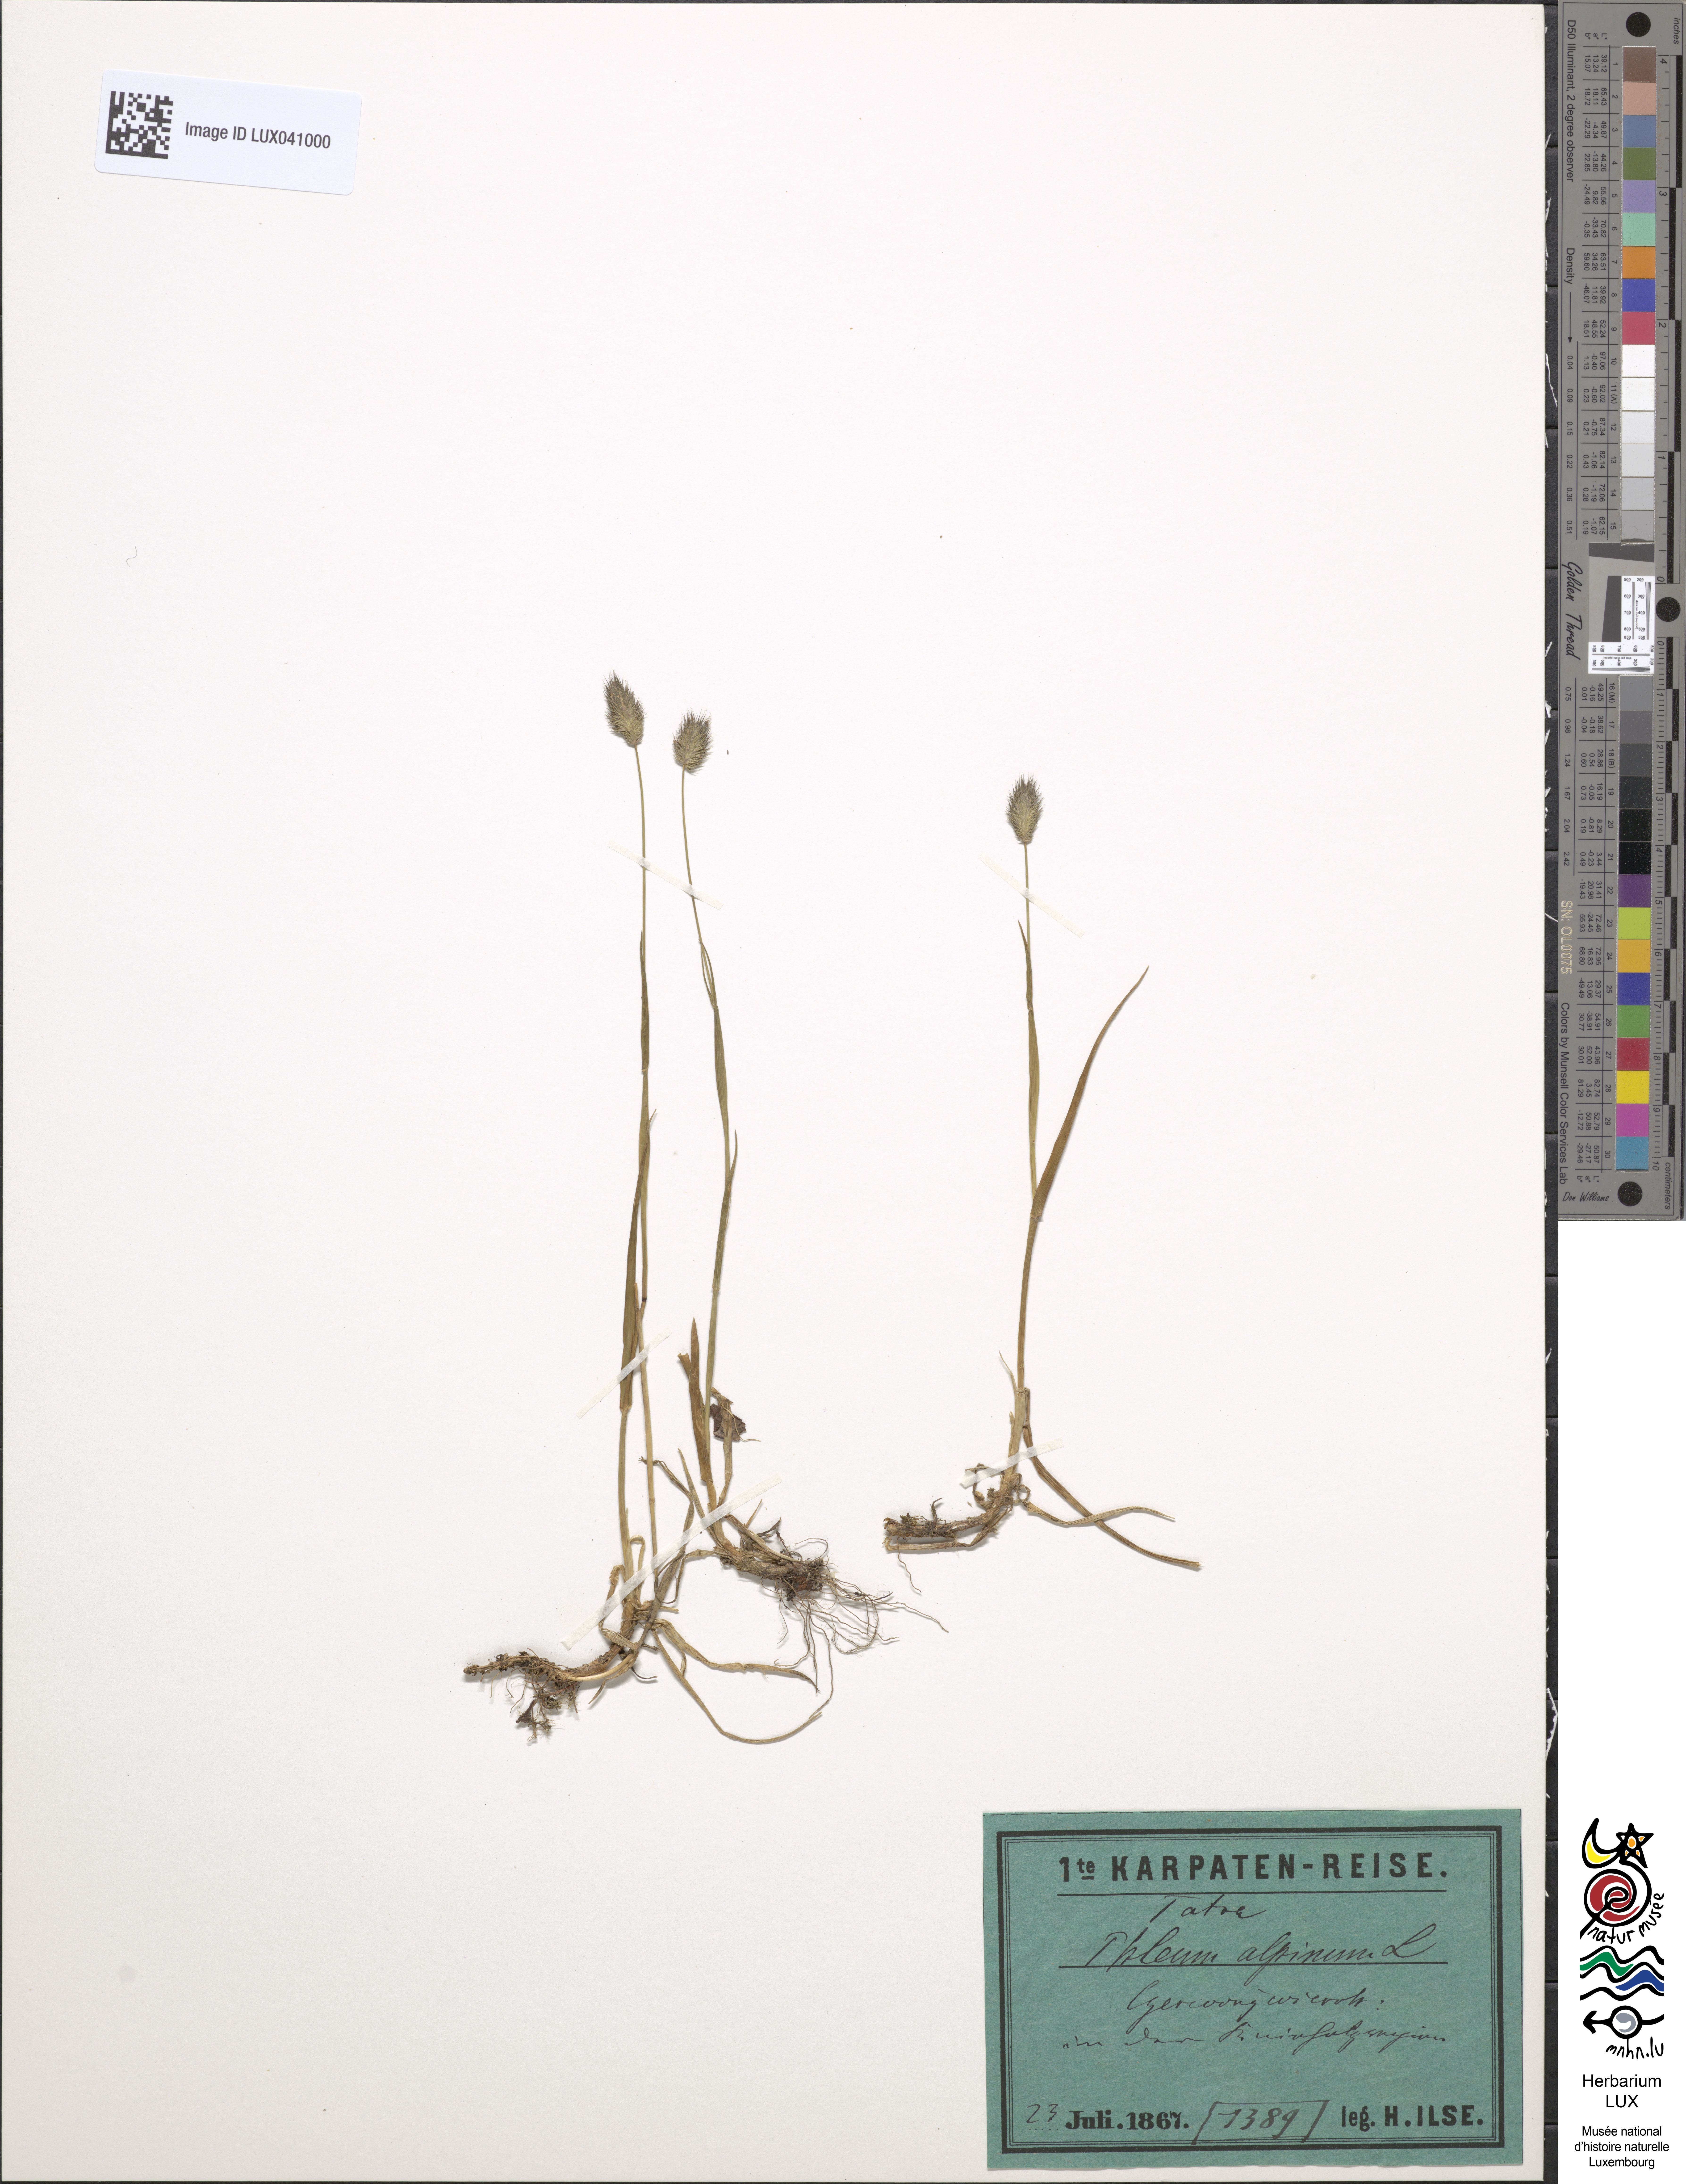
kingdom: Plantae
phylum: Tracheophyta
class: Liliopsida
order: Poales
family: Poaceae
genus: Phleum
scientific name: Phleum alpinum
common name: Alpine cat's-tail
